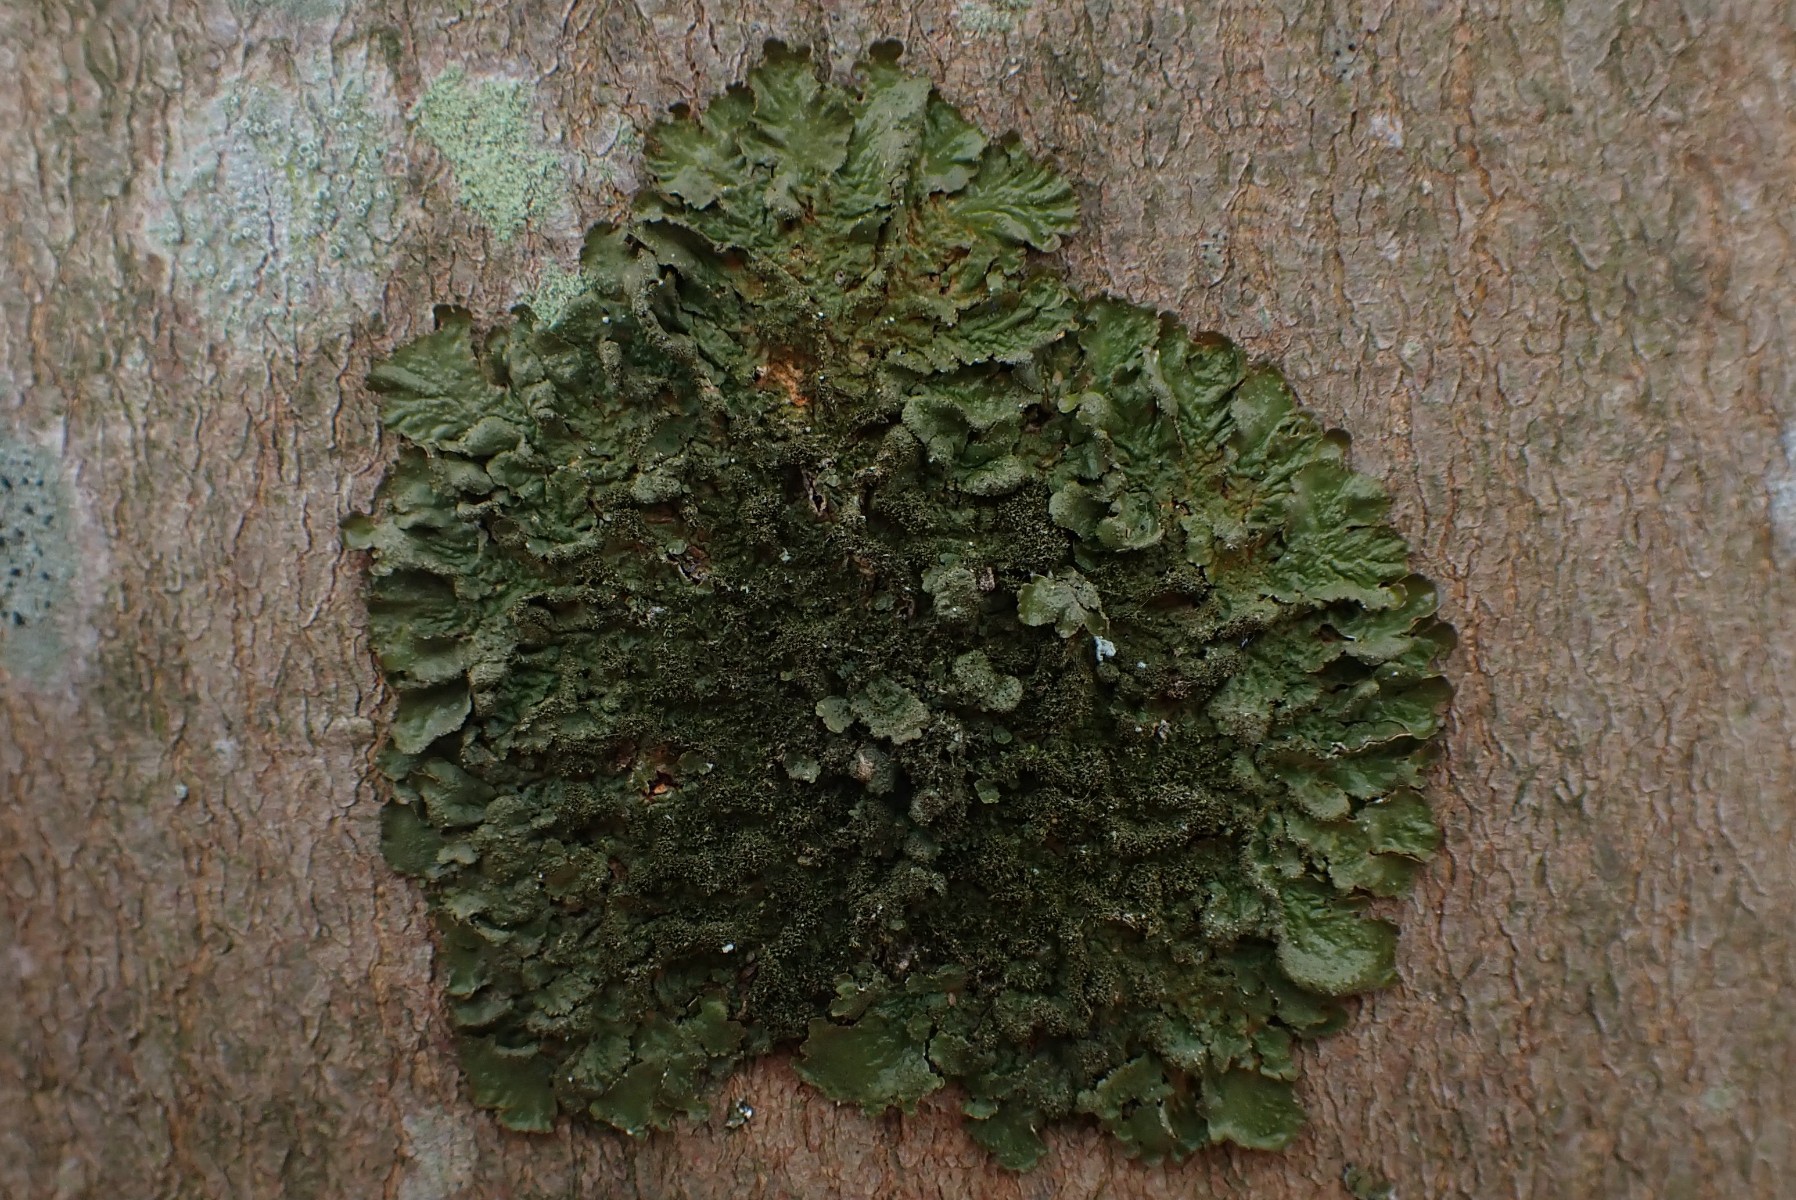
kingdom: Fungi
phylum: Ascomycota
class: Lecanoromycetes
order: Lecanorales
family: Parmeliaceae
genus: Melanelixia
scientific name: Melanelixia glabratula
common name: glinsende skållav
